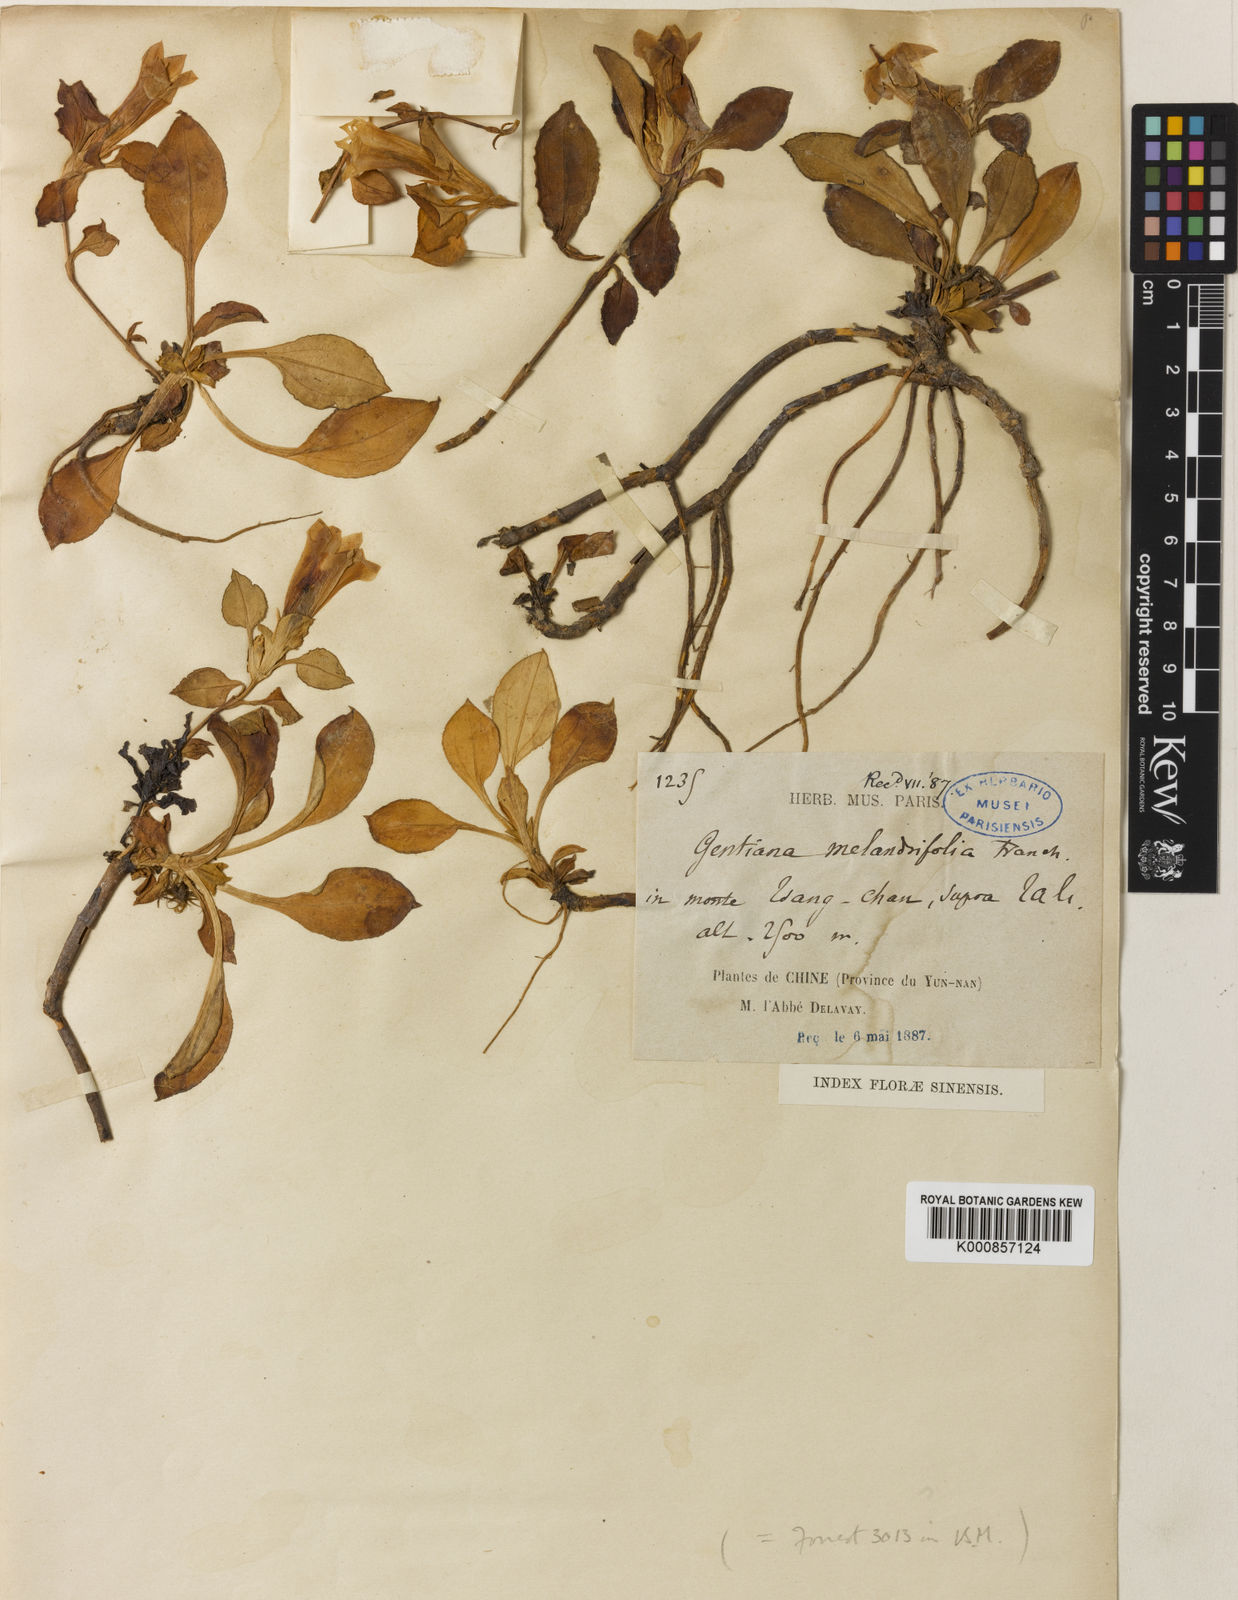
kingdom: Plantae
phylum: Tracheophyta
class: Magnoliopsida
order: Gentianales
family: Gentianaceae
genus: Gentiana
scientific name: Gentiana melandriifolia
